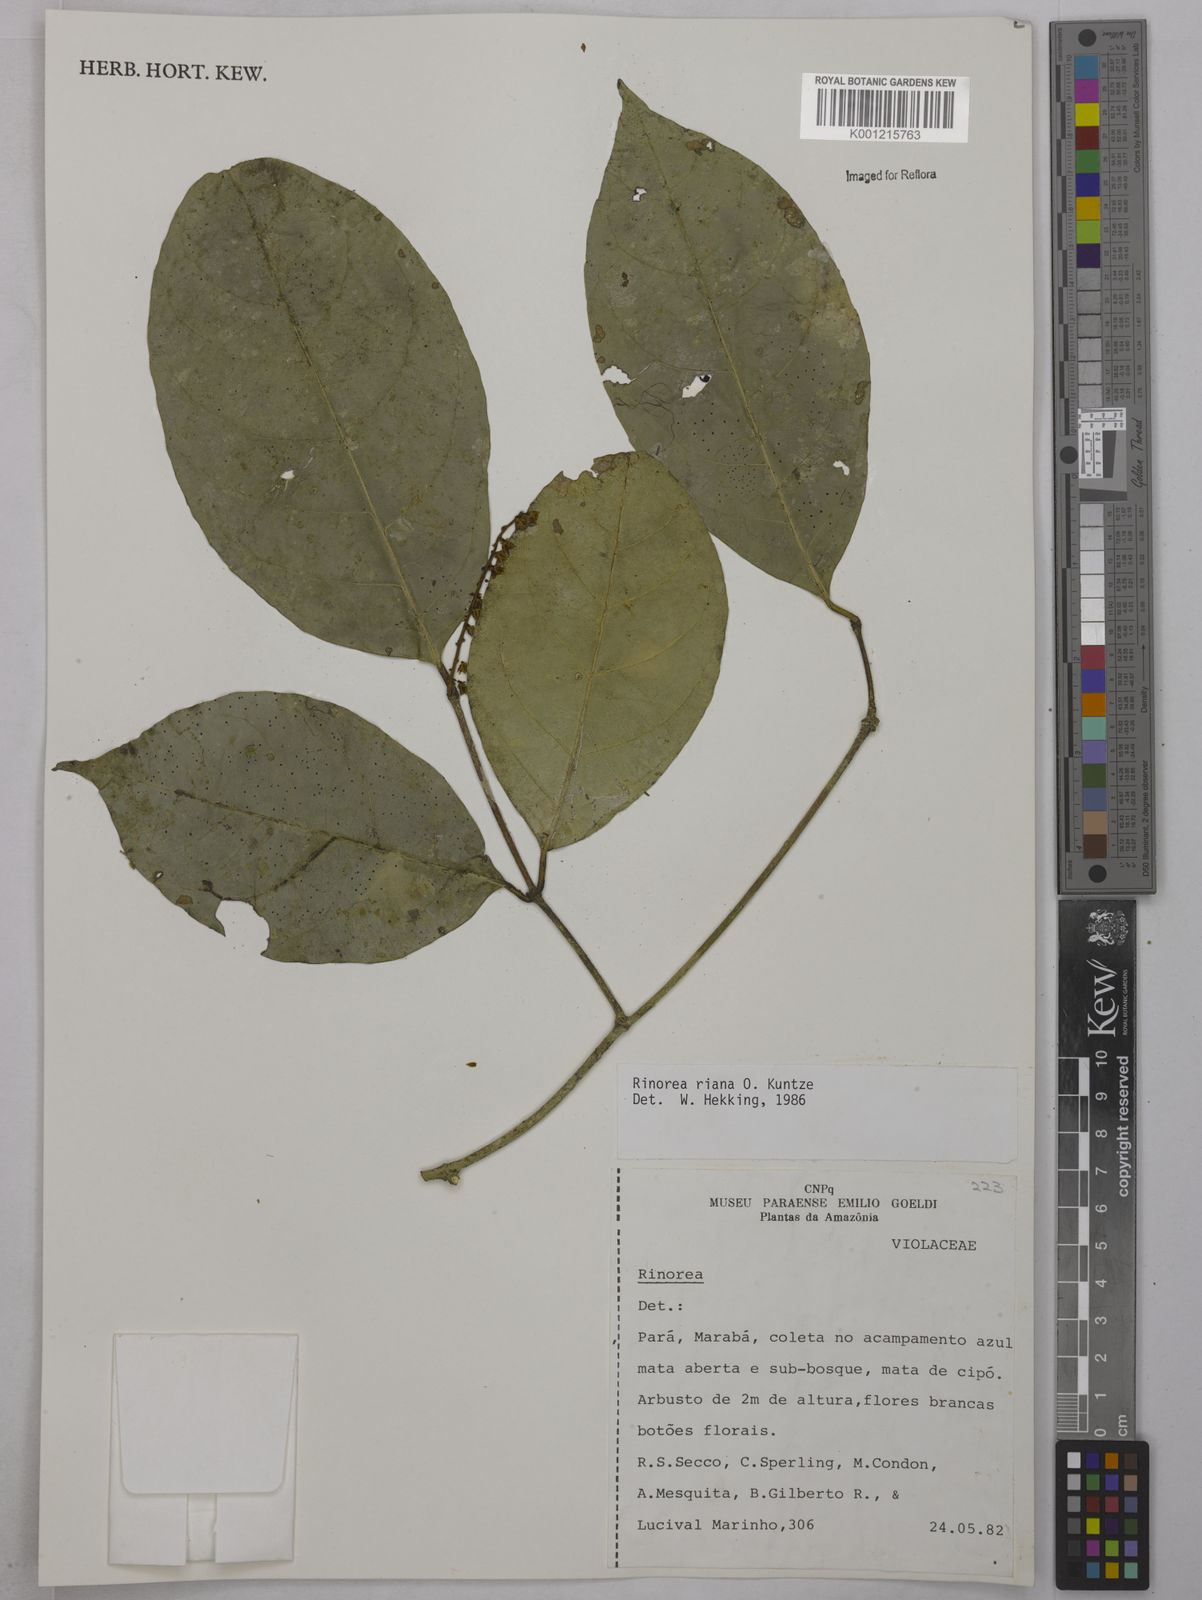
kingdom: Plantae
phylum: Tracheophyta
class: Magnoliopsida
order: Malpighiales
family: Violaceae
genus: Rinorea
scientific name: Rinorea riana
